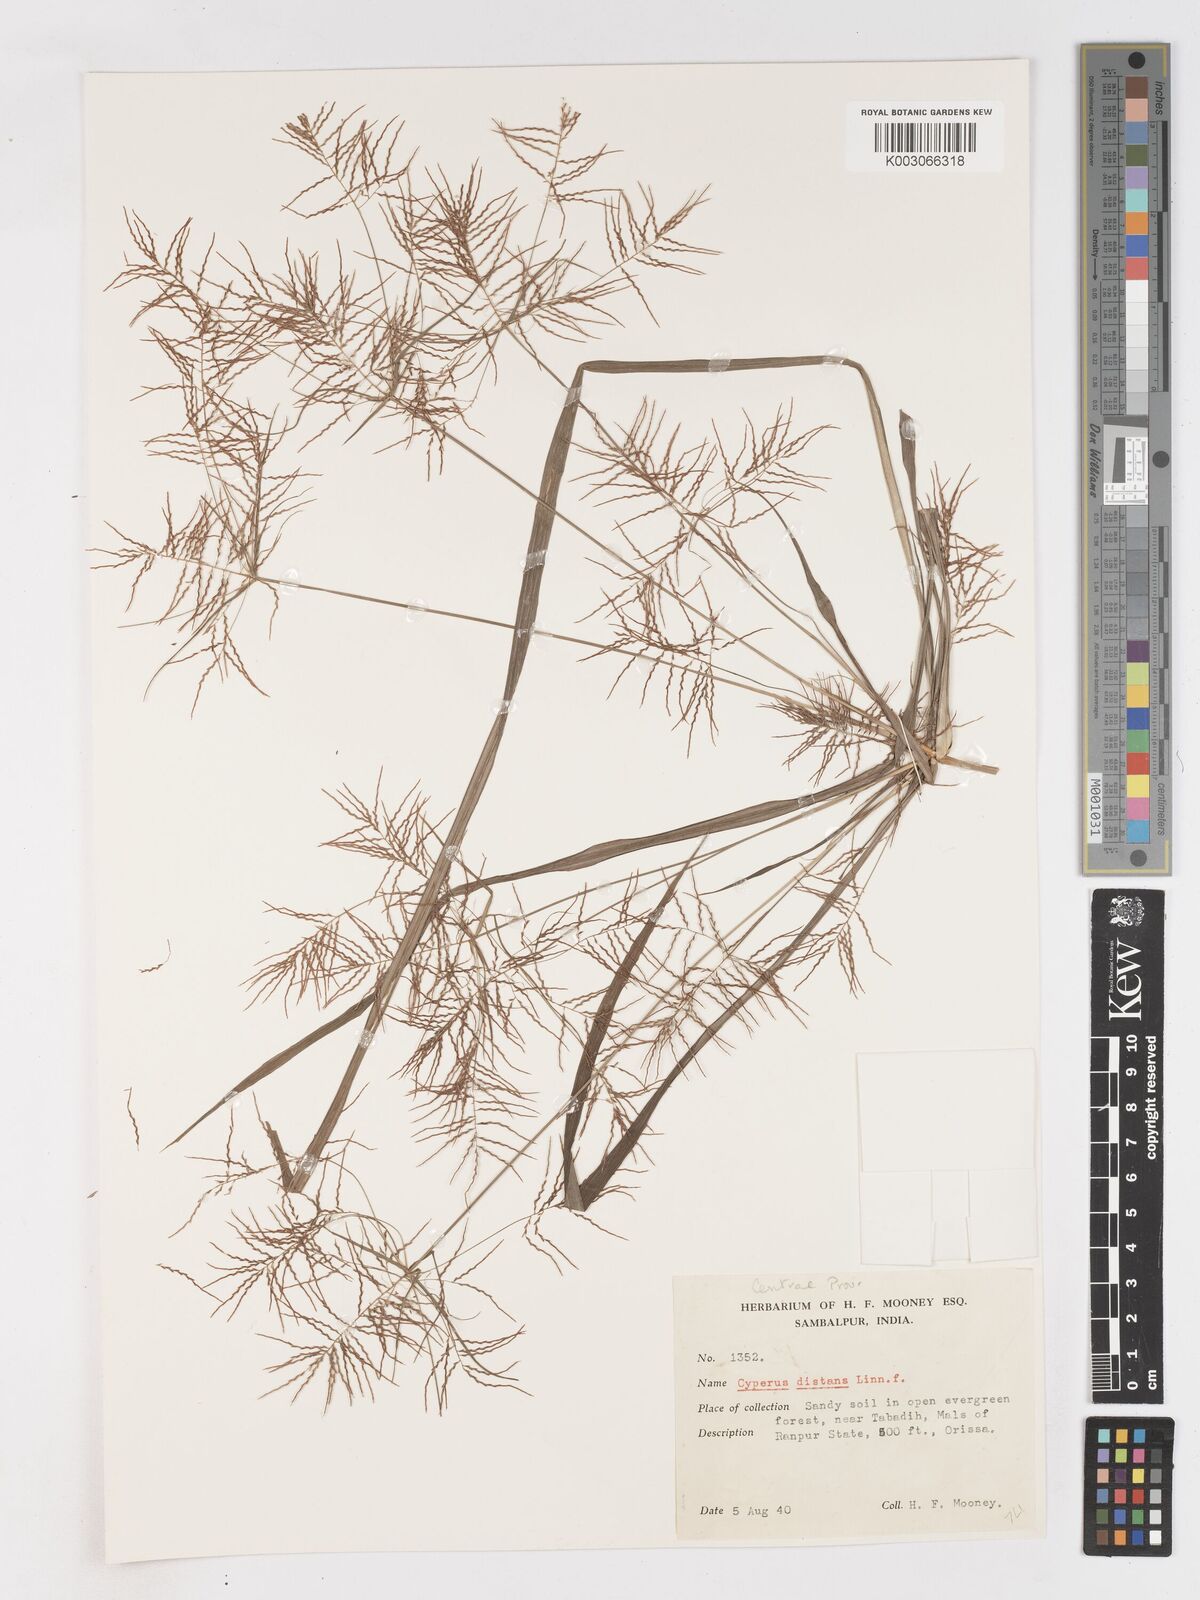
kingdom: Plantae
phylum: Tracheophyta
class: Liliopsida
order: Poales
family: Cyperaceae
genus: Cyperus
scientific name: Cyperus distans
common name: Slender cyperus
